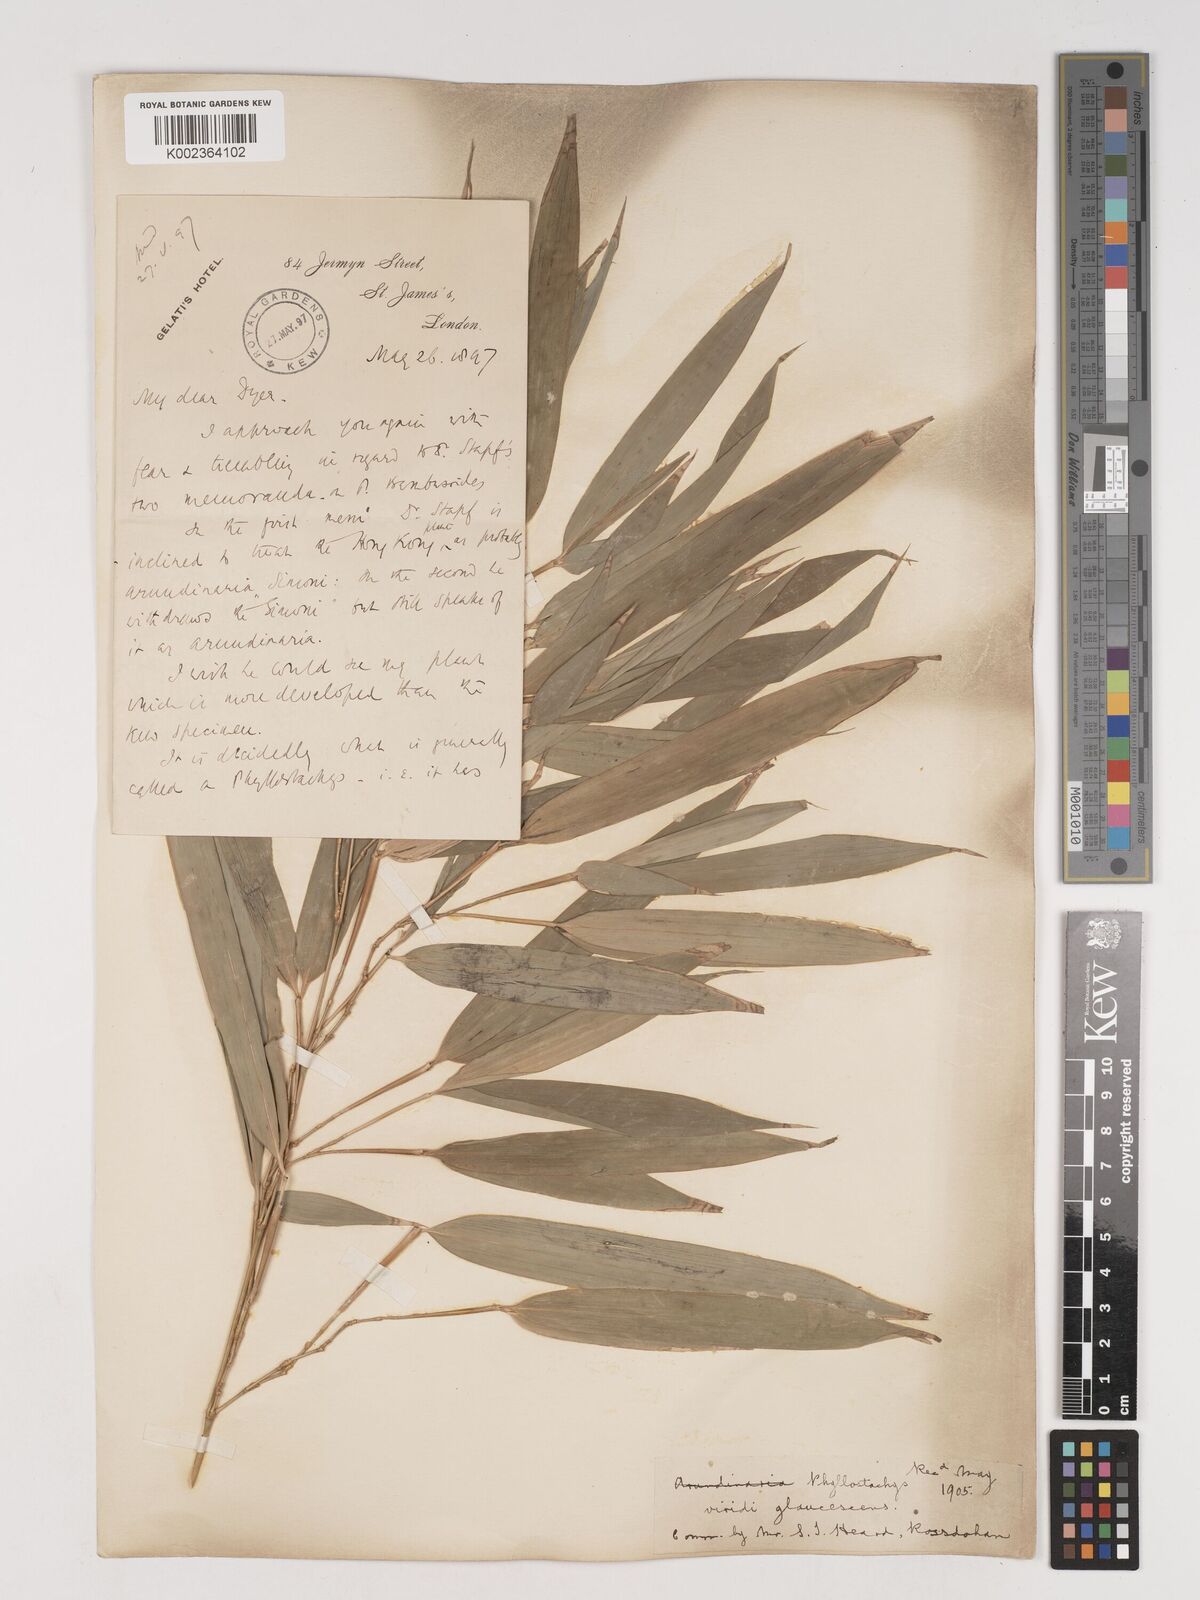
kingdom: Plantae
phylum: Tracheophyta
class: Liliopsida
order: Poales
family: Poaceae
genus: Phyllostachys
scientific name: Phyllostachys viridiglaucescens
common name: Greenwax golden bamboo
